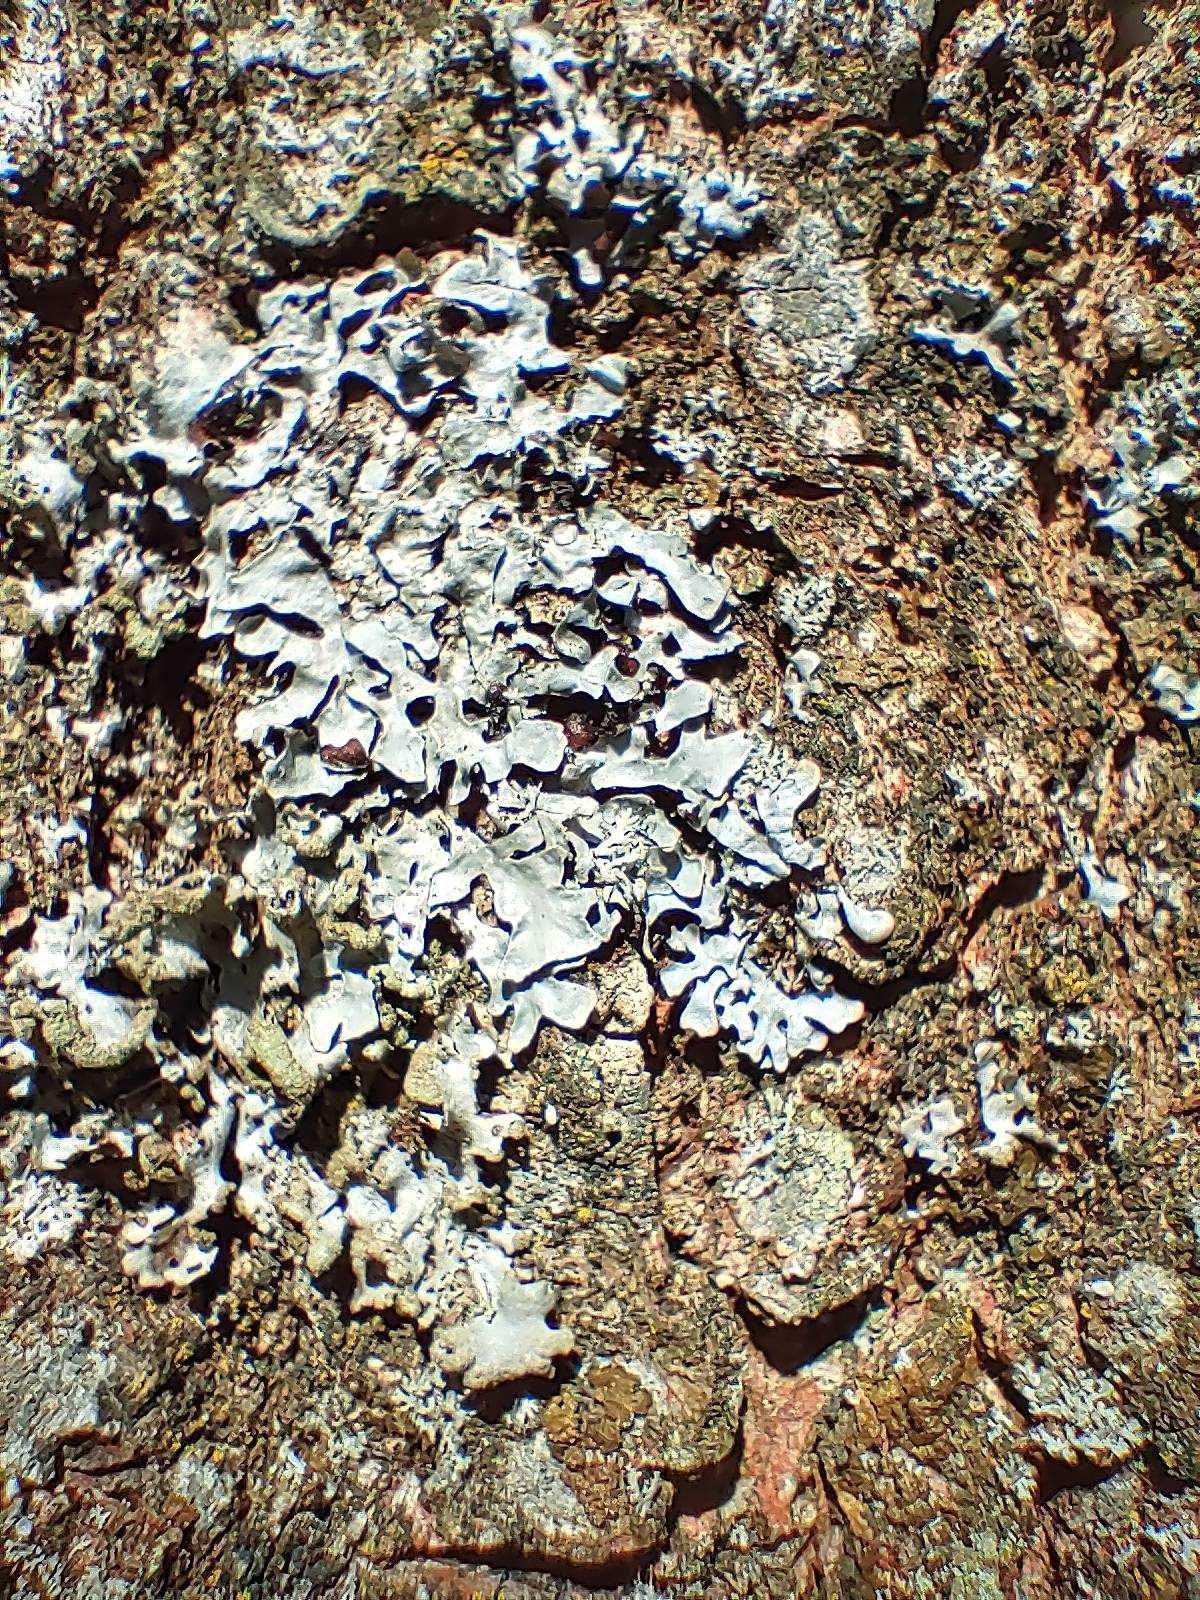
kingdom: Fungi
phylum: Ascomycota
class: Lecanoromycetes
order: Lecanorales
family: Parmeliaceae
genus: Parmelia
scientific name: Parmelia sulcata
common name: Rynket skållav
